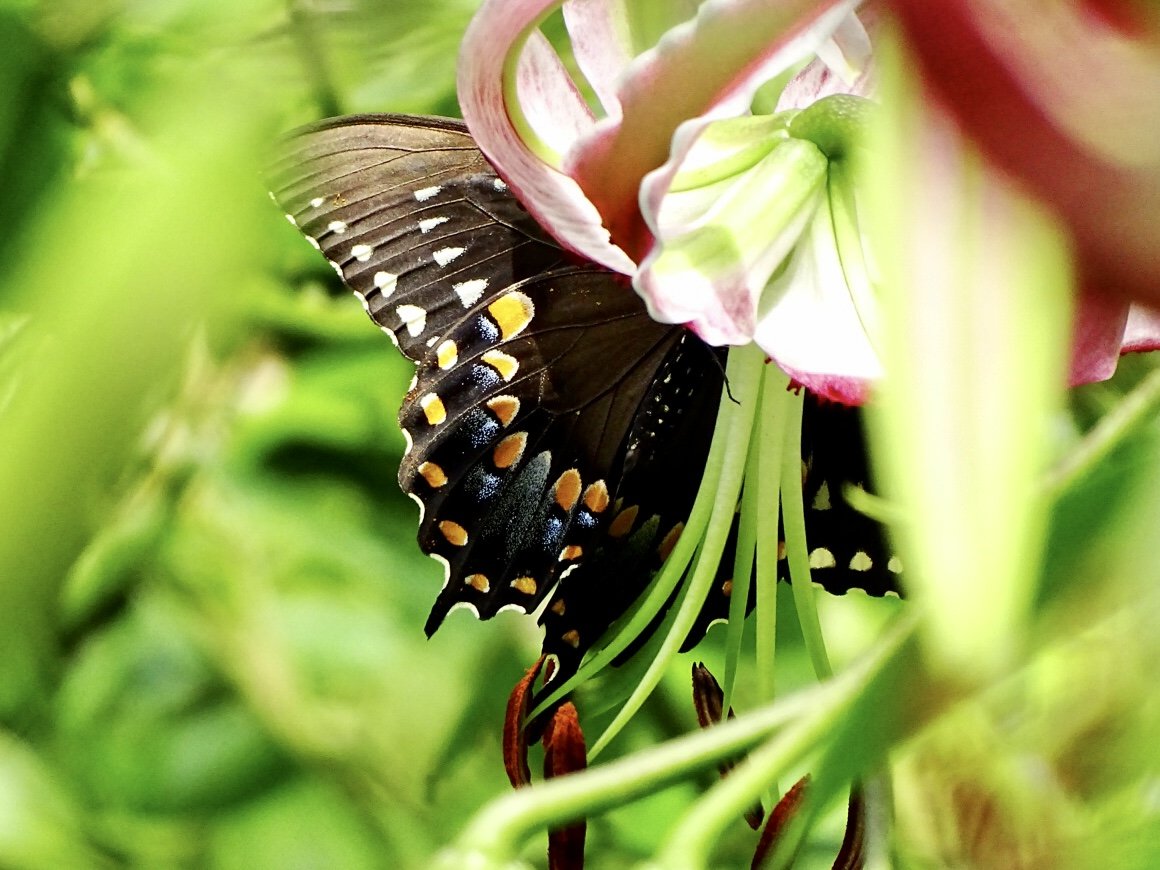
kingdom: Animalia
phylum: Arthropoda
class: Insecta
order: Lepidoptera
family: Papilionidae
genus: Pterourus
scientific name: Pterourus troilus
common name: Spicebush Swallowtail
